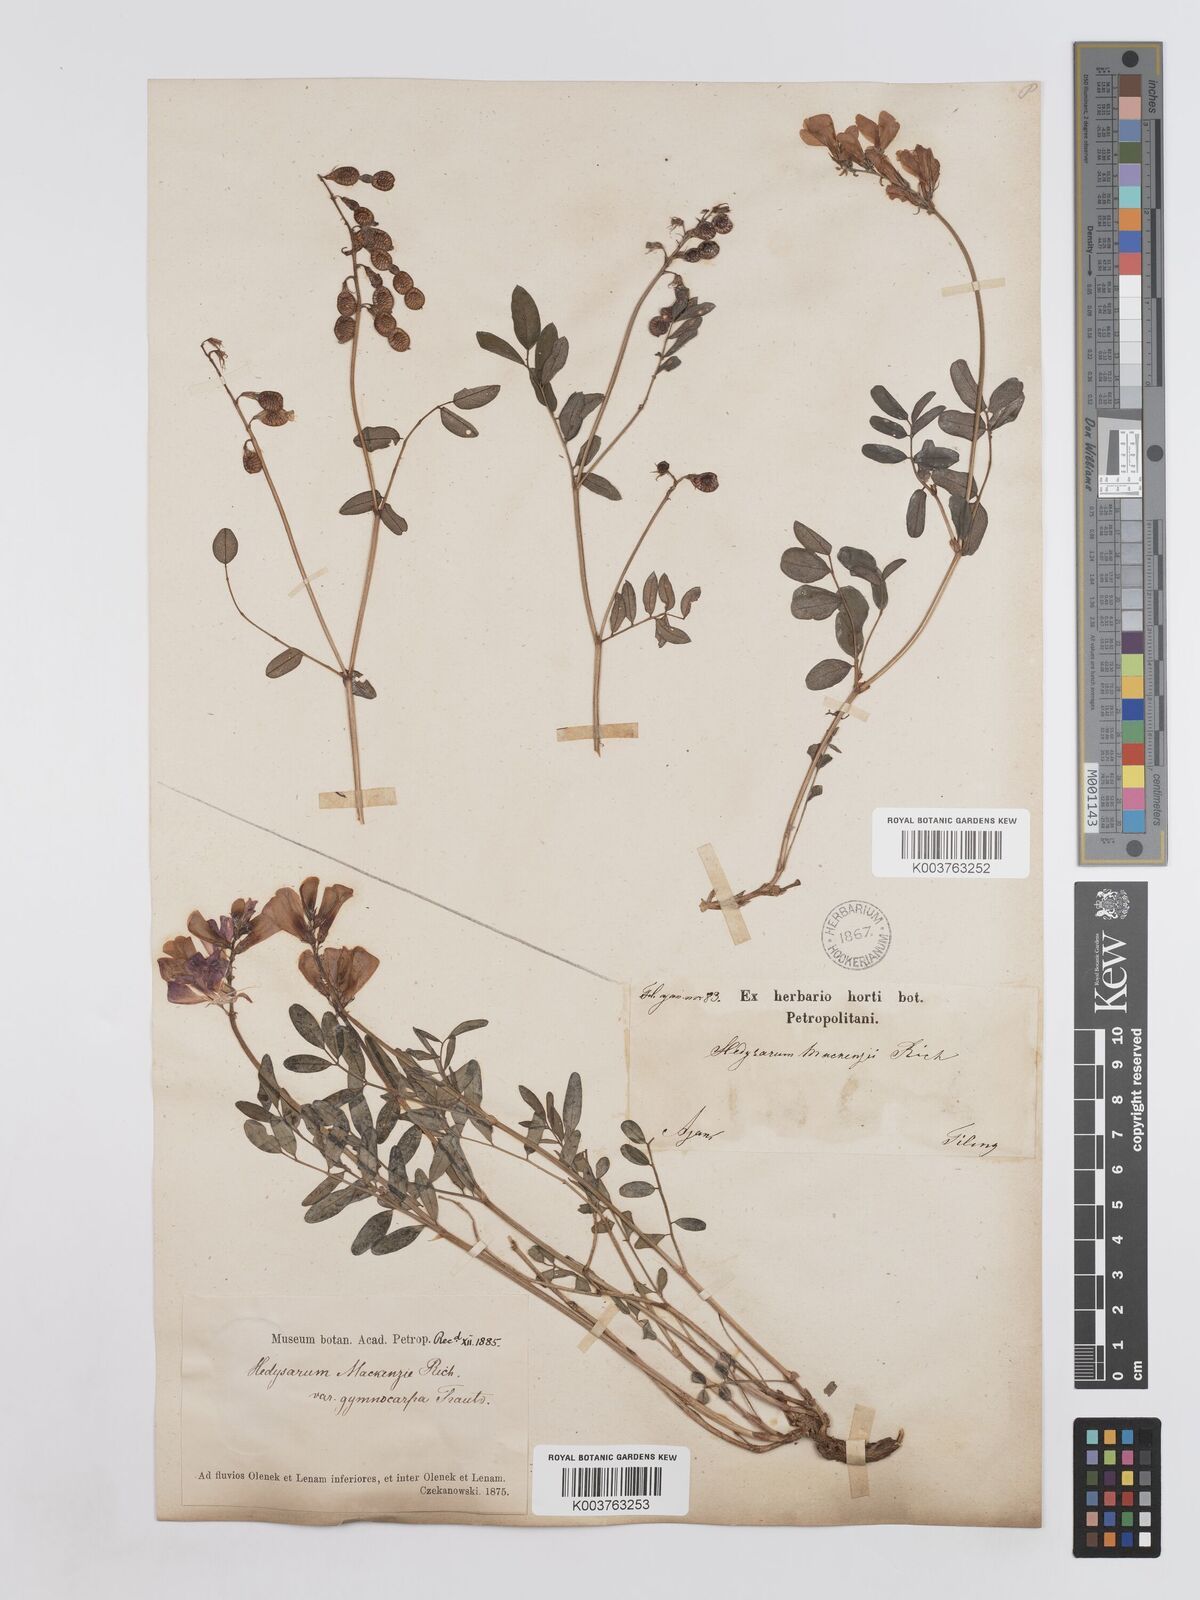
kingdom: Plantae
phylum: Tracheophyta
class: Magnoliopsida
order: Fabales
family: Fabaceae
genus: Hedysarum
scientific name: Hedysarum boreale
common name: Northern sweet-vetch
